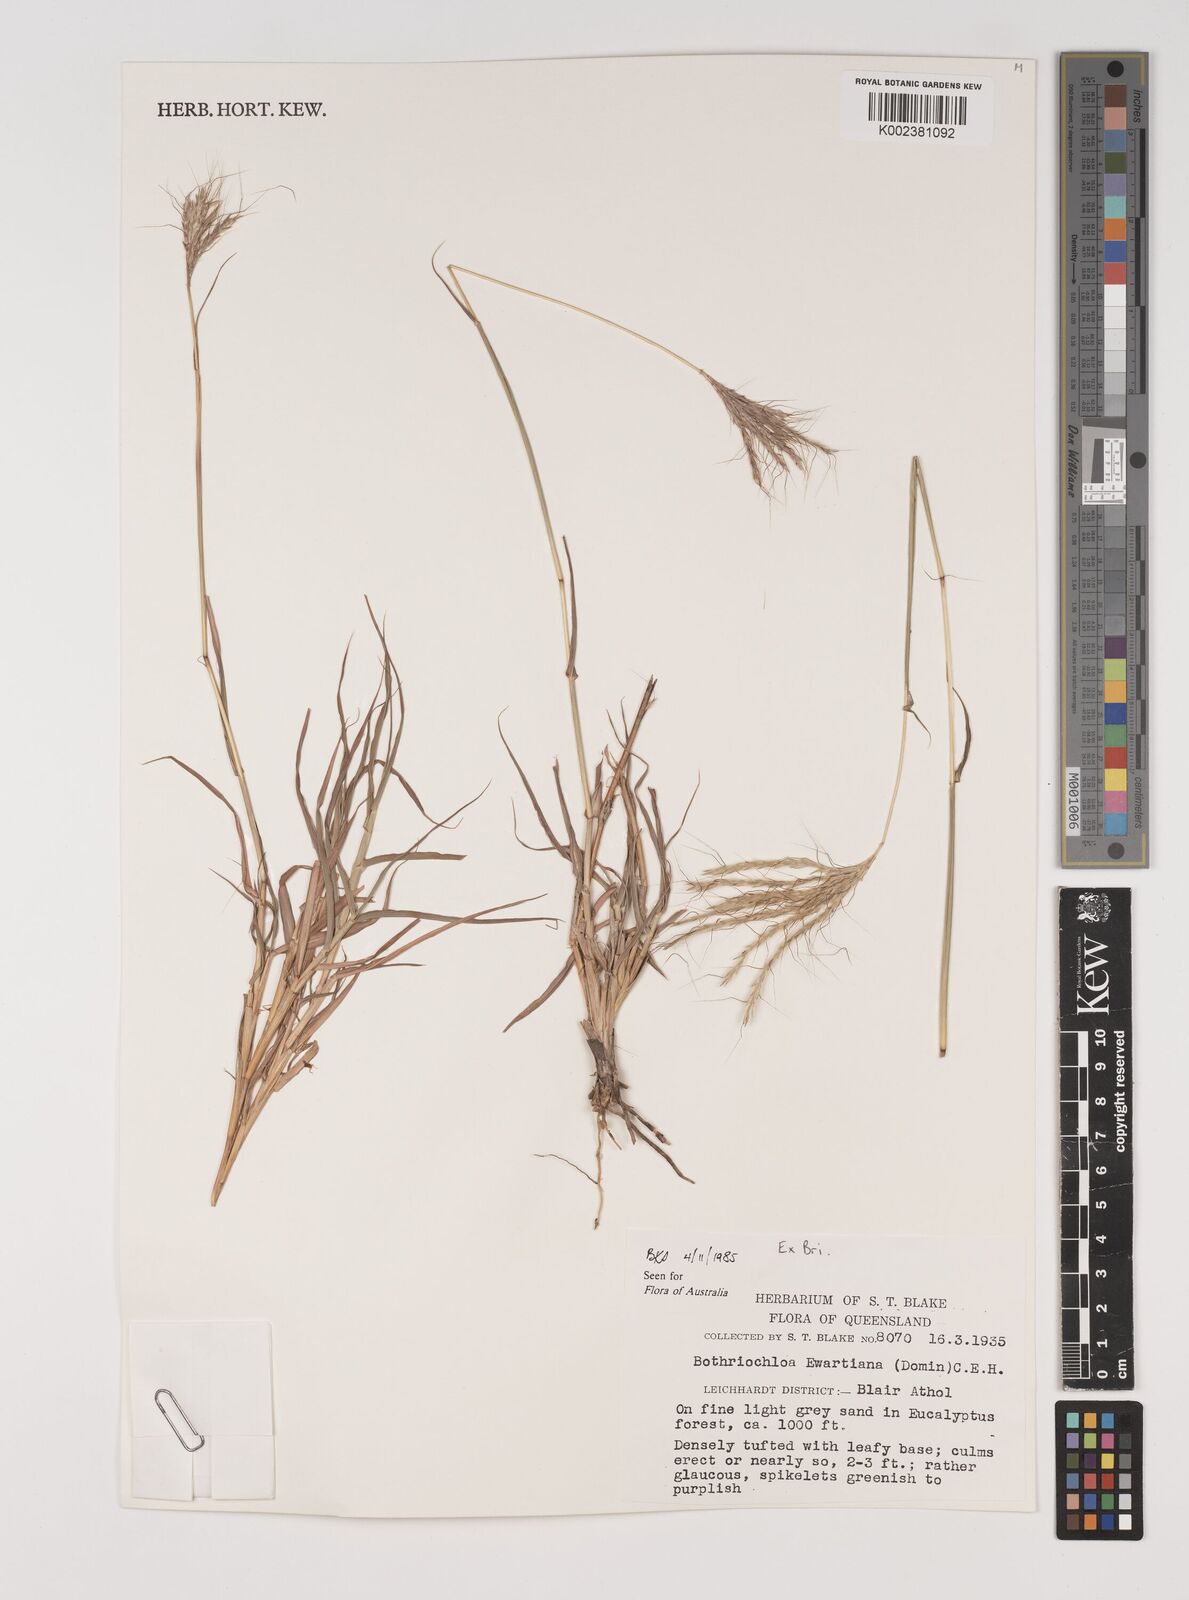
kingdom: Plantae
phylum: Tracheophyta
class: Liliopsida
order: Poales
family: Poaceae
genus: Bothriochloa
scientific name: Bothriochloa ewartiana
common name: Desert-bluegrass
